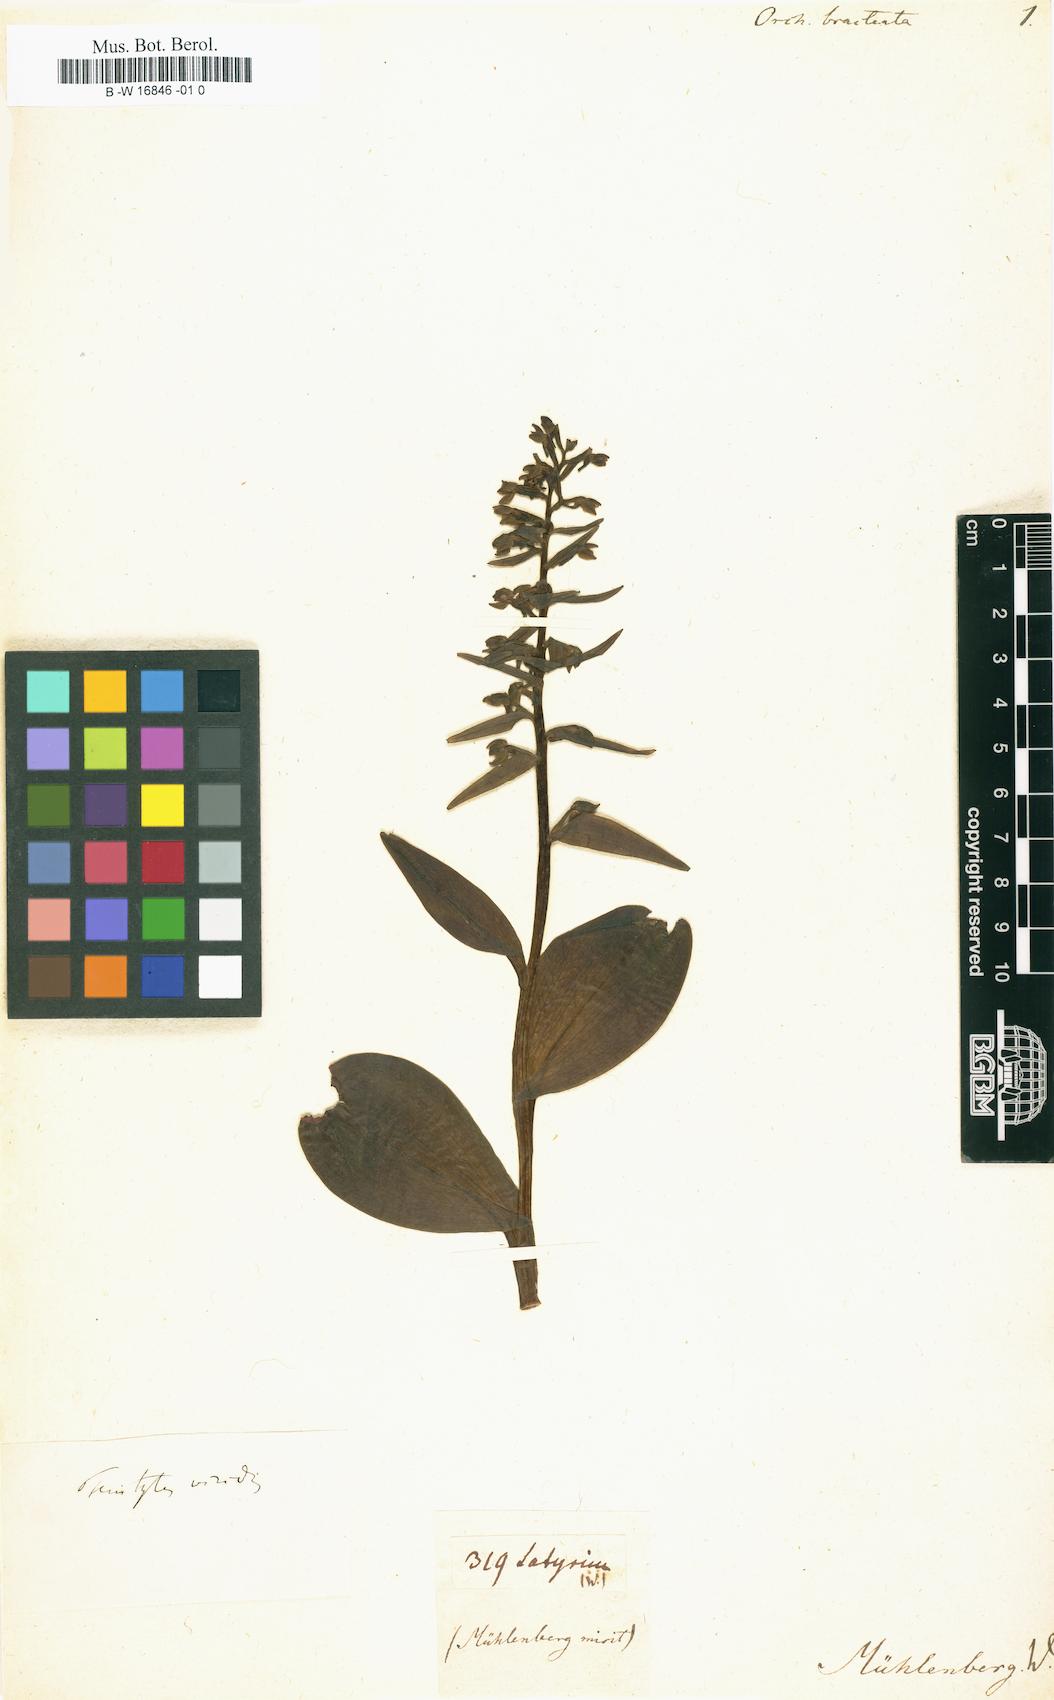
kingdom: Plantae
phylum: Tracheophyta
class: Liliopsida
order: Asparagales
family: Orchidaceae
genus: Dactylorhiza
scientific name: Dactylorhiza viridis
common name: Longbract frog orchid
